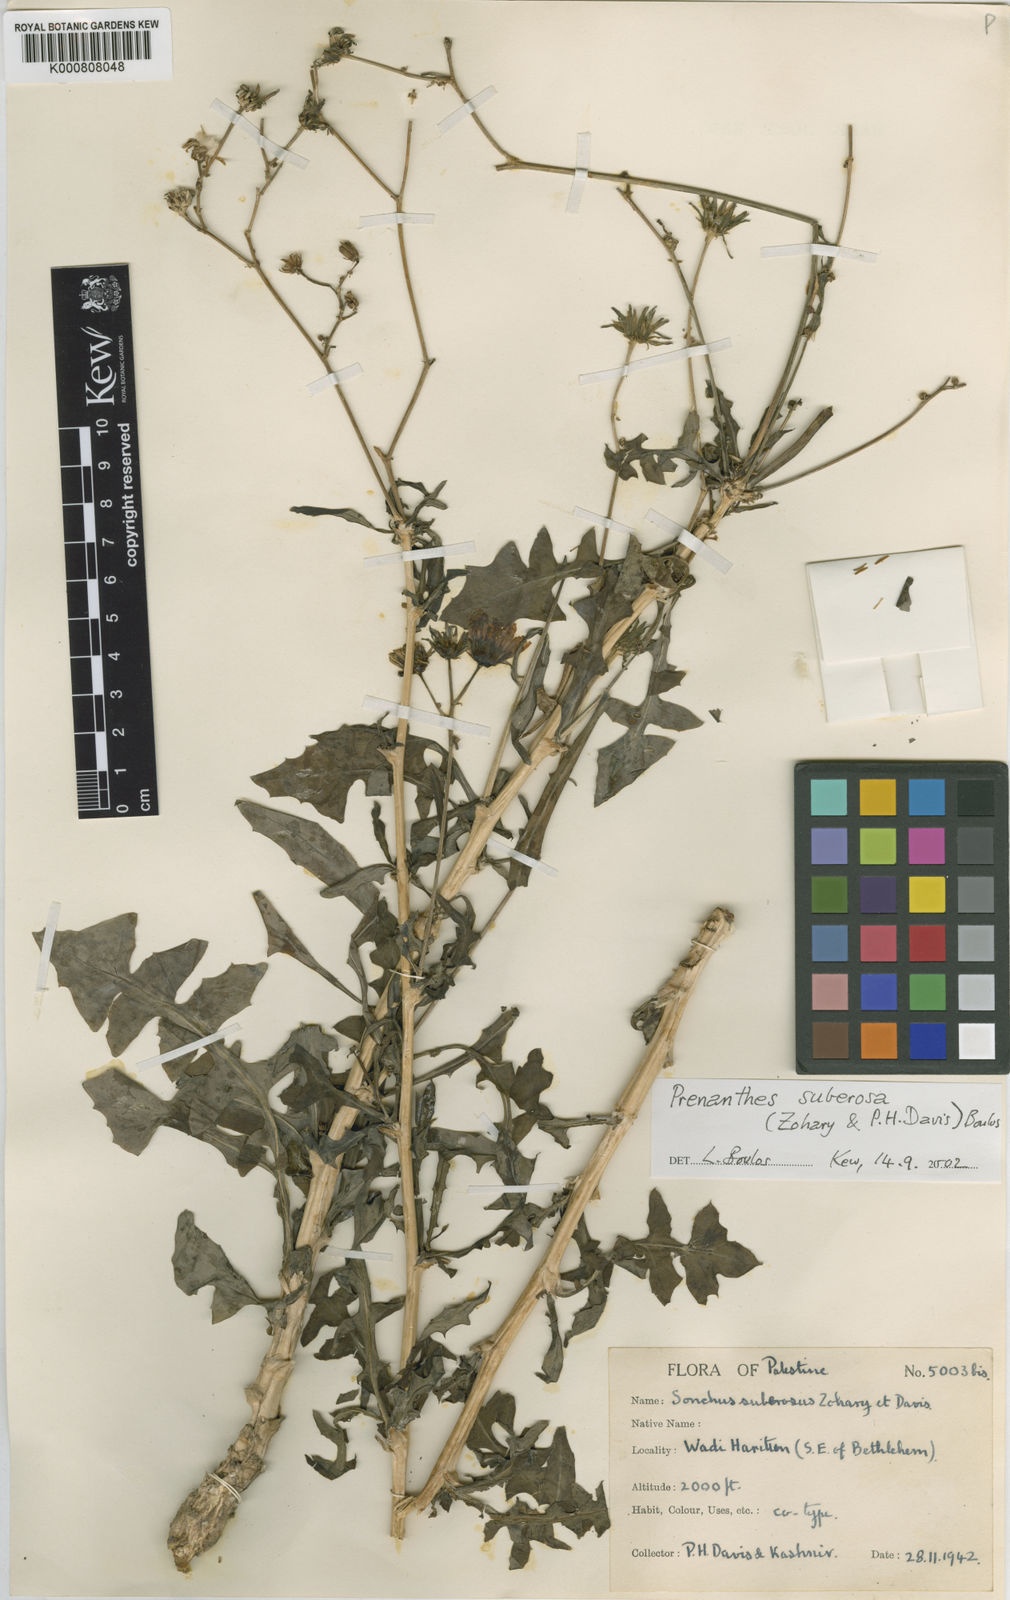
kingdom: Plantae
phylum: Tracheophyta
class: Magnoliopsida
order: Asterales
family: Asteraceae
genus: Sonchus
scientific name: Sonchus suberosus
